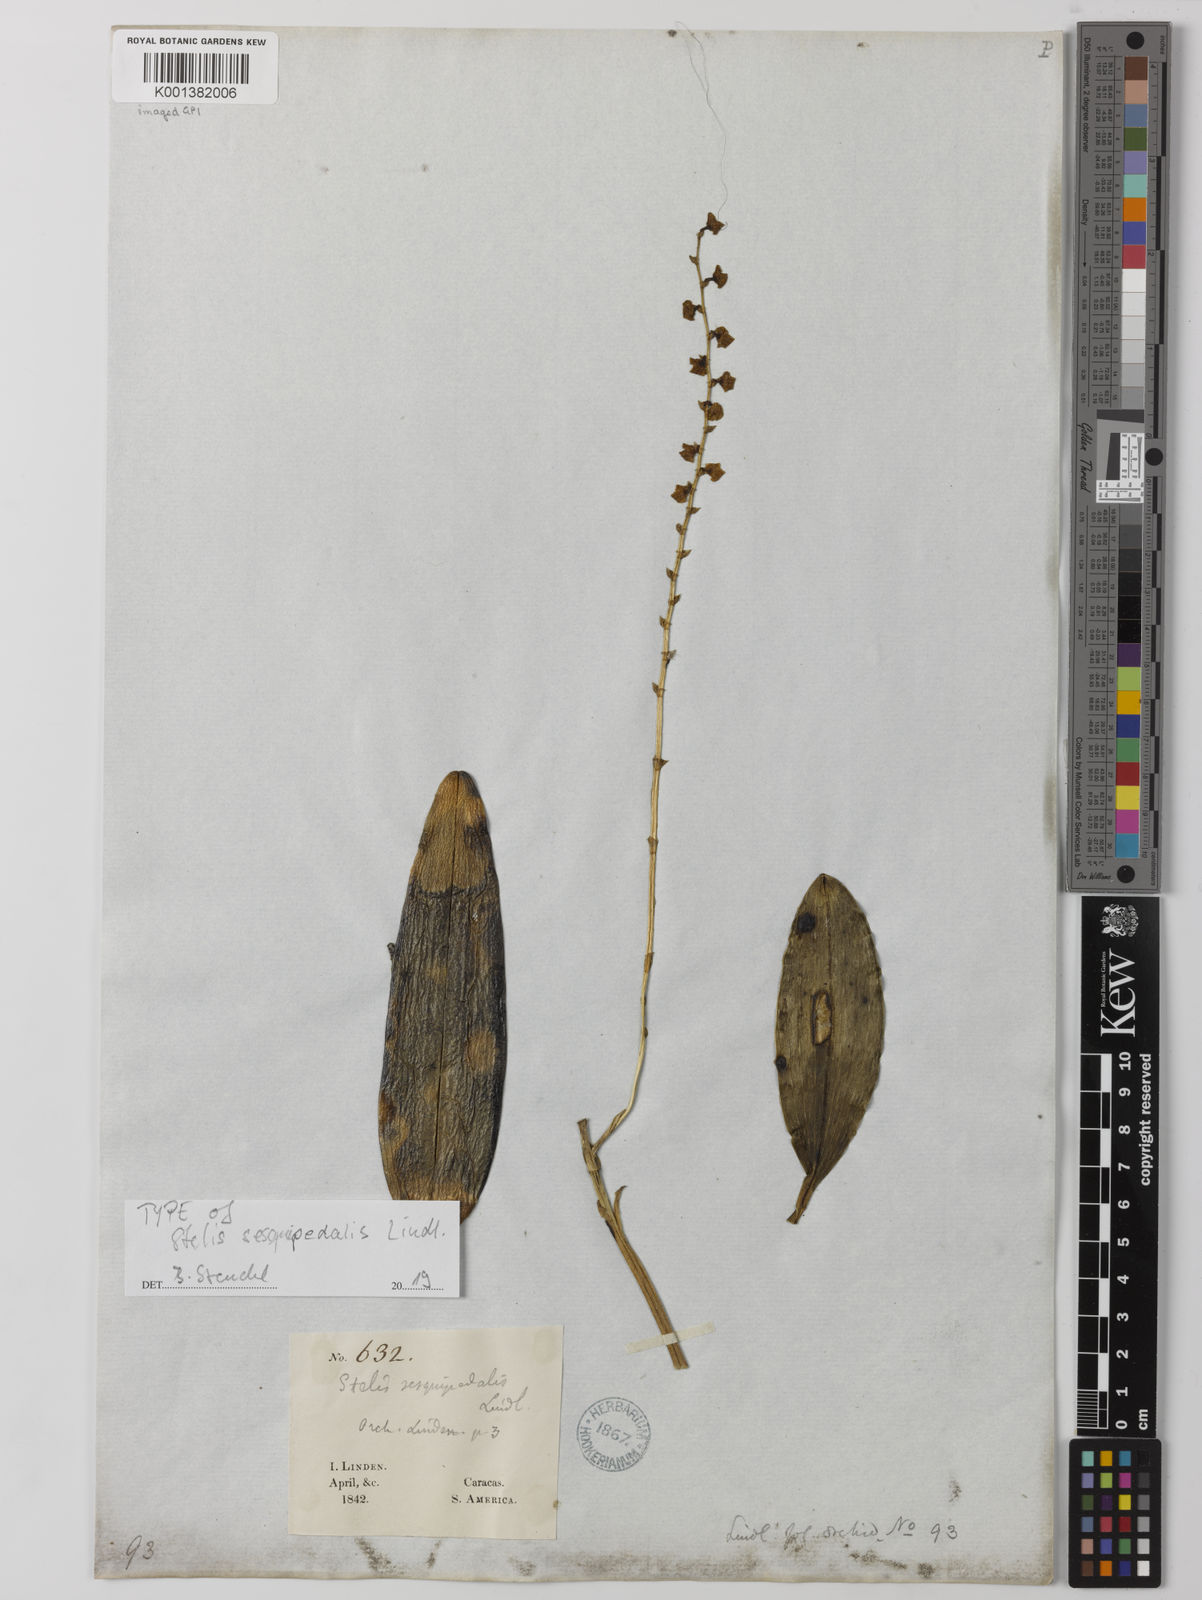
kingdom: Plantae
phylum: Tracheophyta
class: Liliopsida
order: Asparagales
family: Orchidaceae
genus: Stelis
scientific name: Stelis lanceolata
